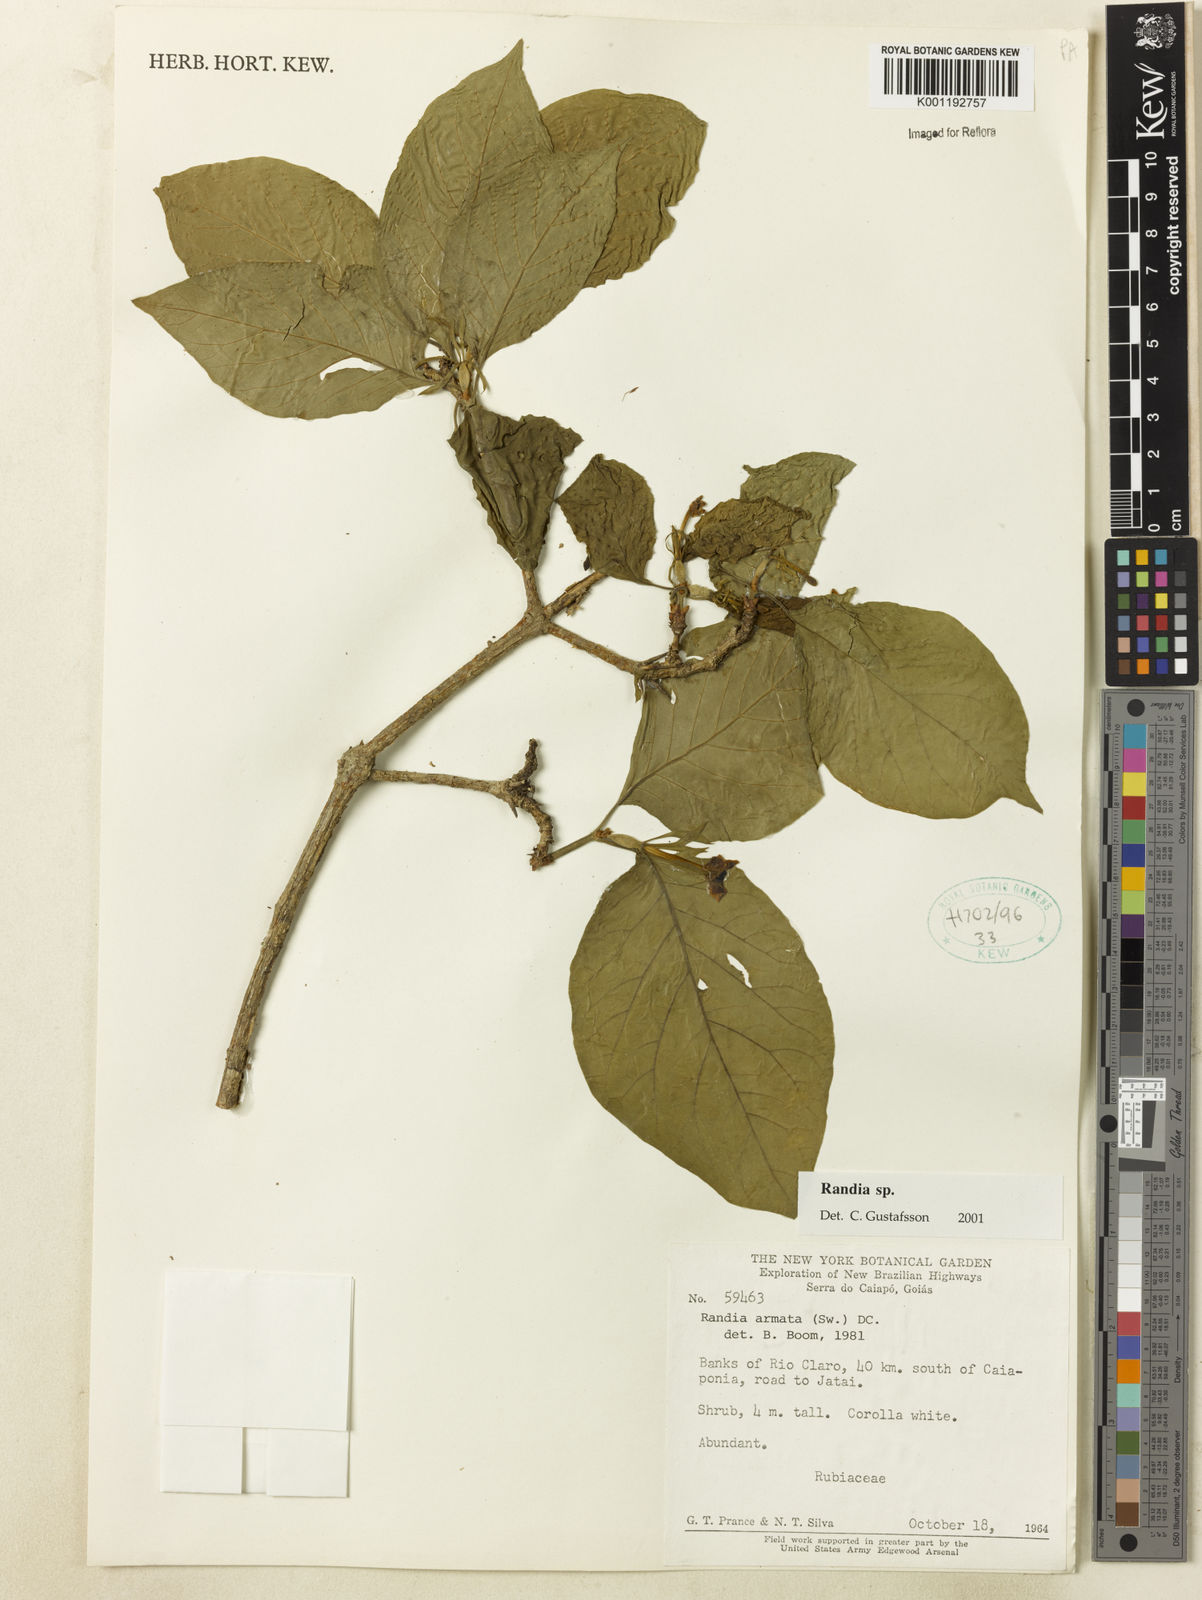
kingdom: Plantae
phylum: Tracheophyta
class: Magnoliopsida
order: Gentianales
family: Rubiaceae
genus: Randia
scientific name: Randia
